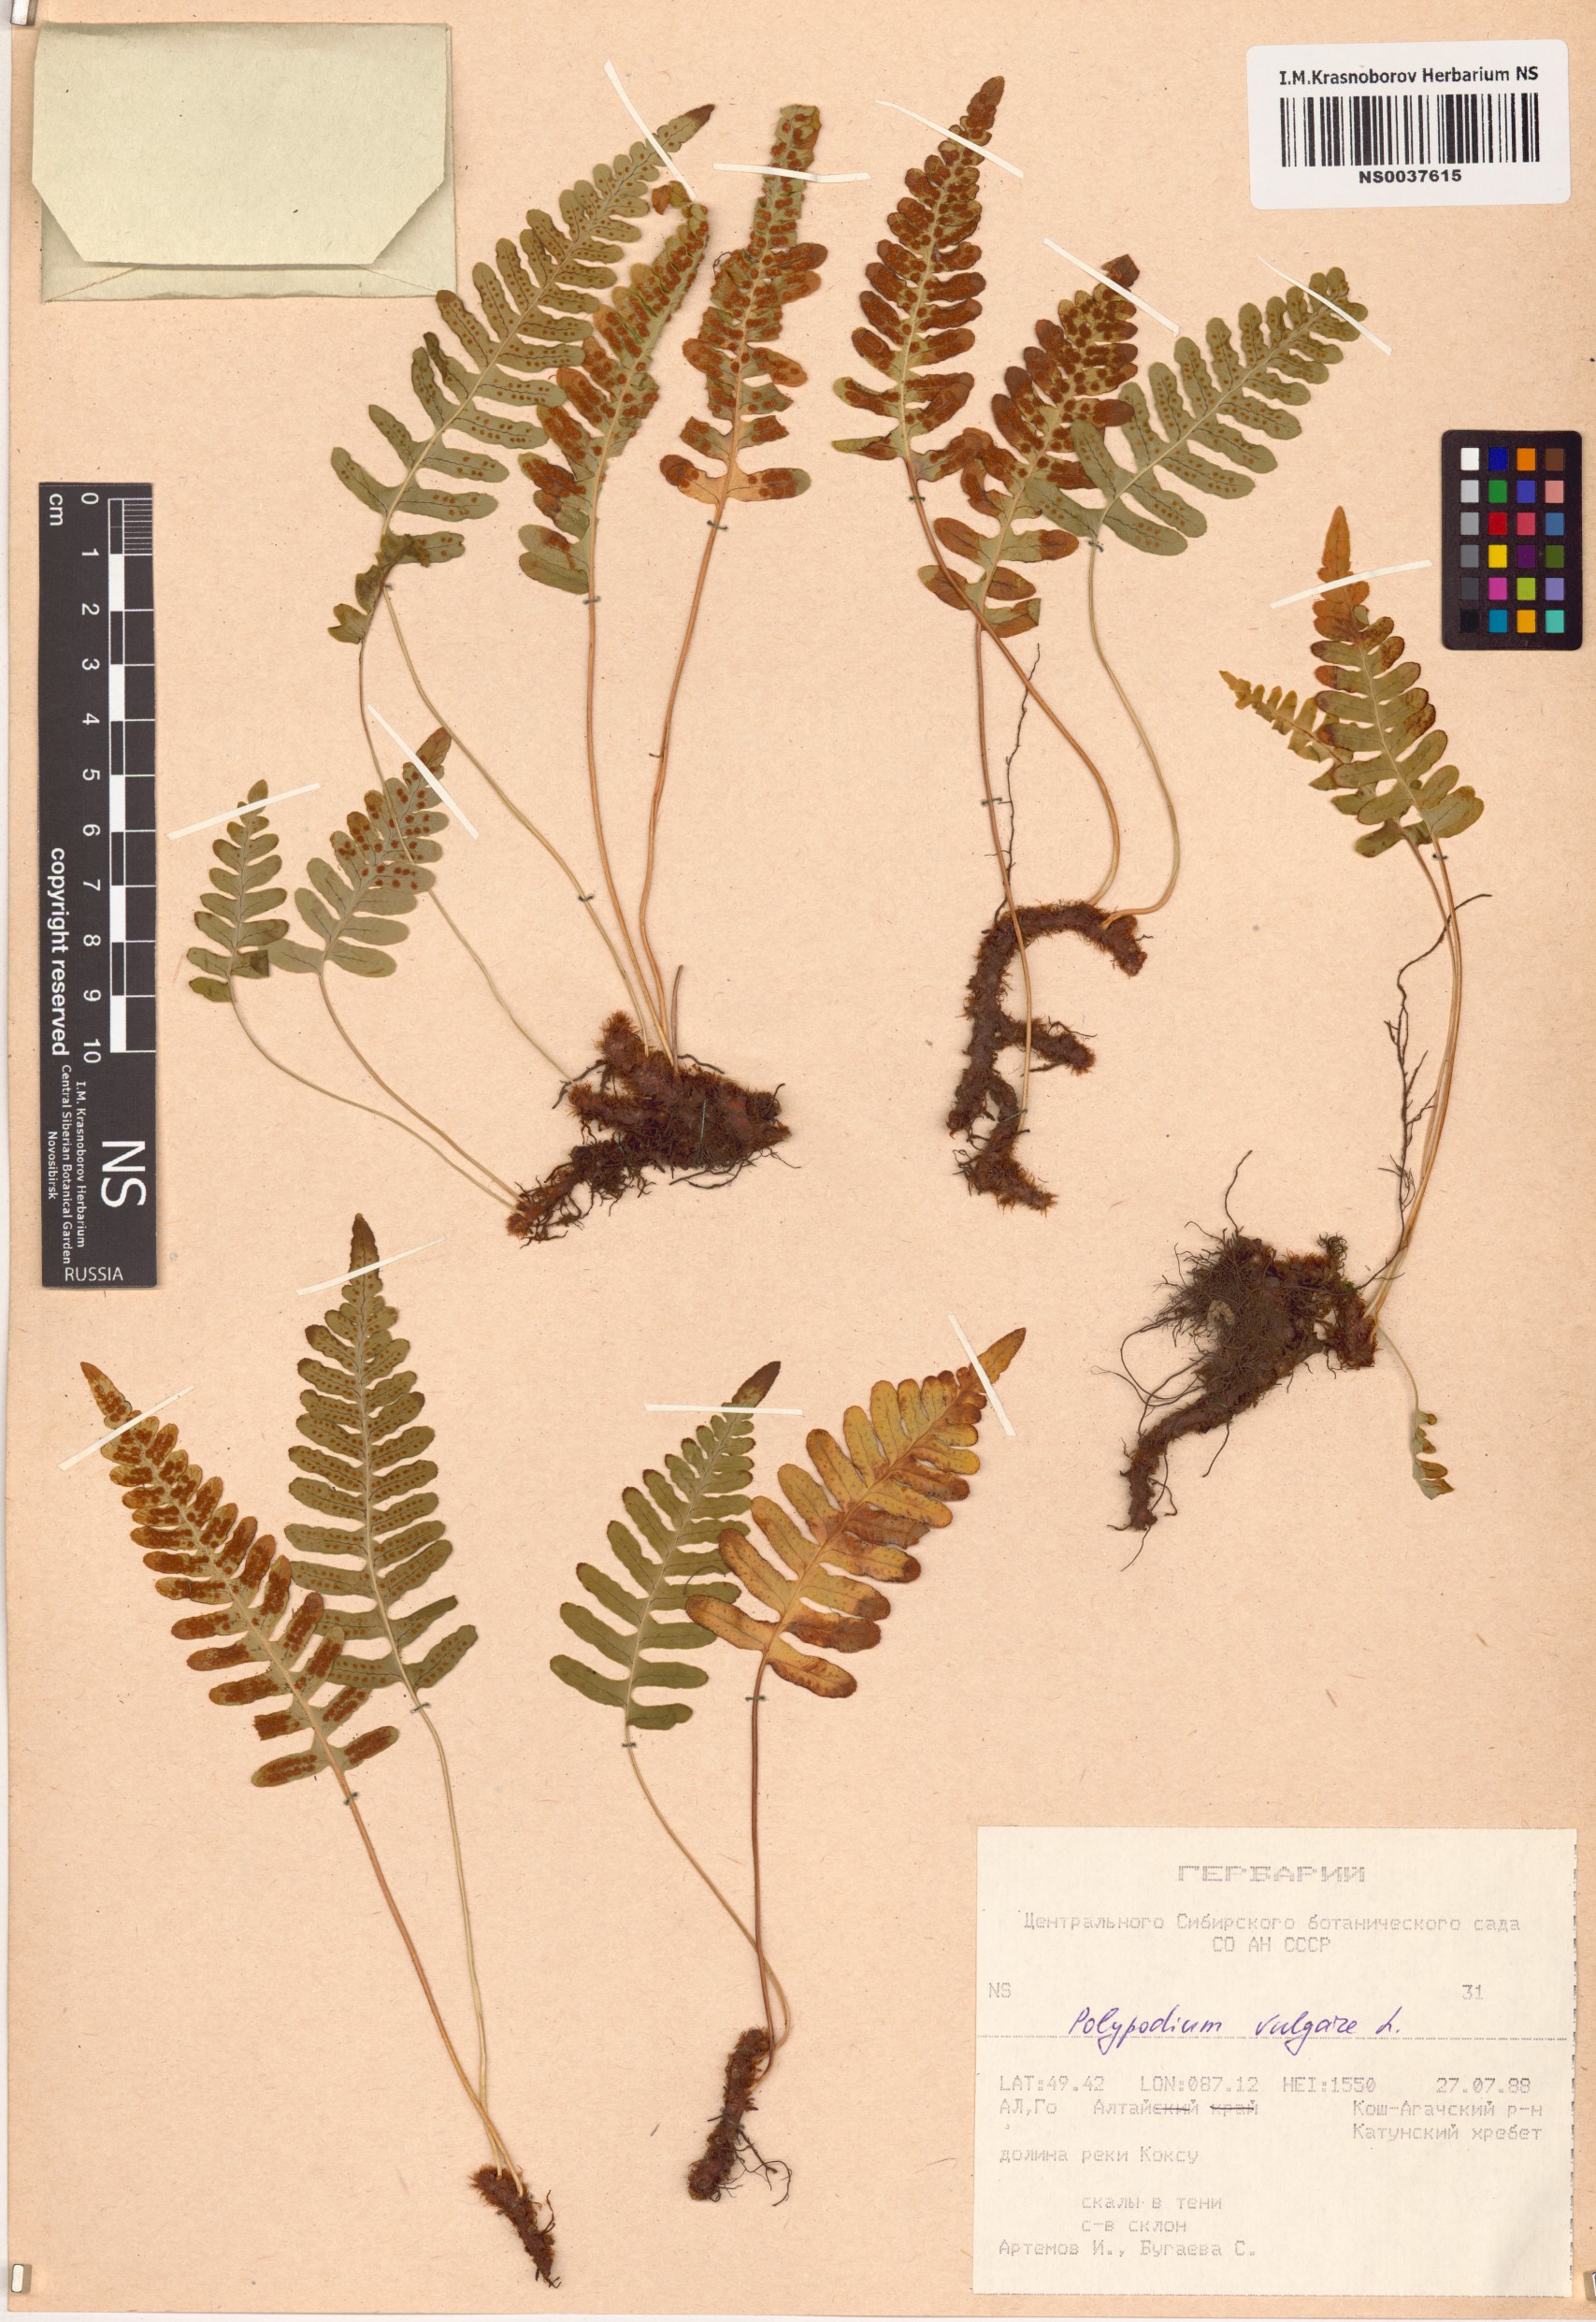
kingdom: Plantae
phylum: Tracheophyta
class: Polypodiopsida
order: Polypodiales
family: Polypodiaceae
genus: Polypodium
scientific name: Polypodium vulgare
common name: Common polypody
